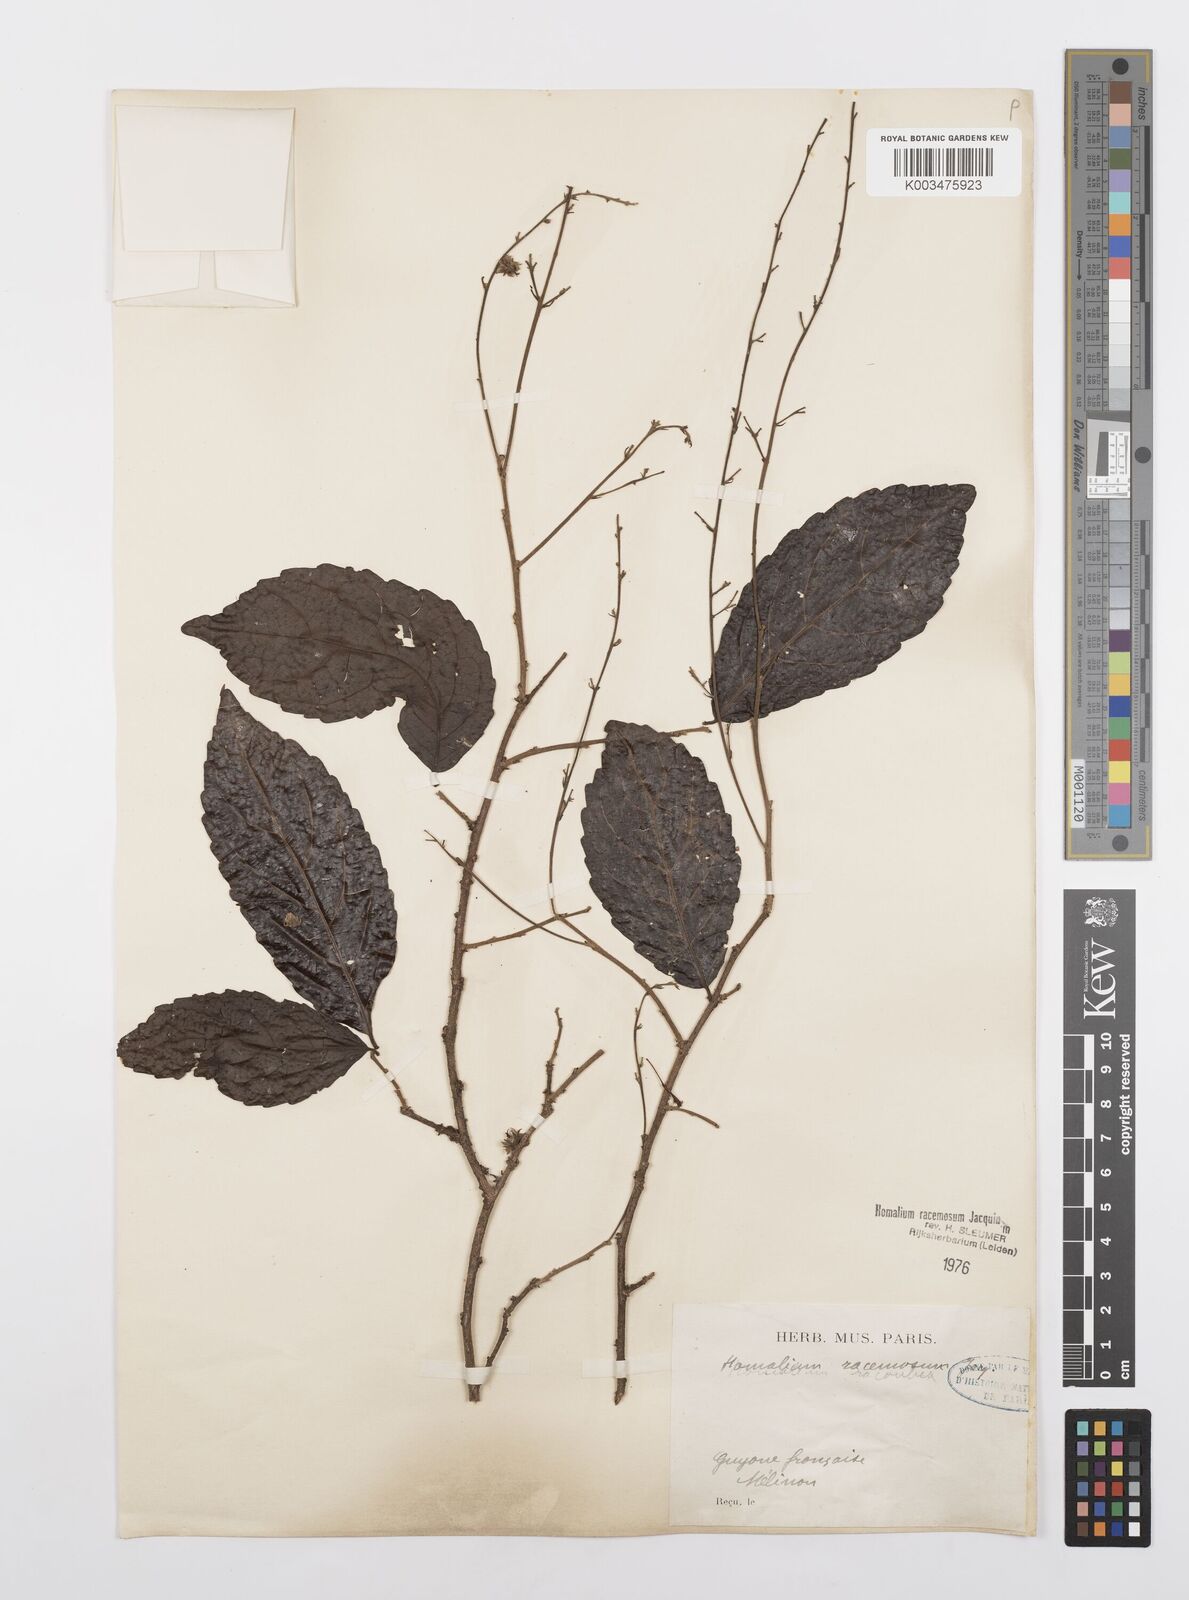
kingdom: Plantae
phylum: Tracheophyta
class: Magnoliopsida
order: Malpighiales
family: Salicaceae
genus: Homalium
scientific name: Homalium racemosum
